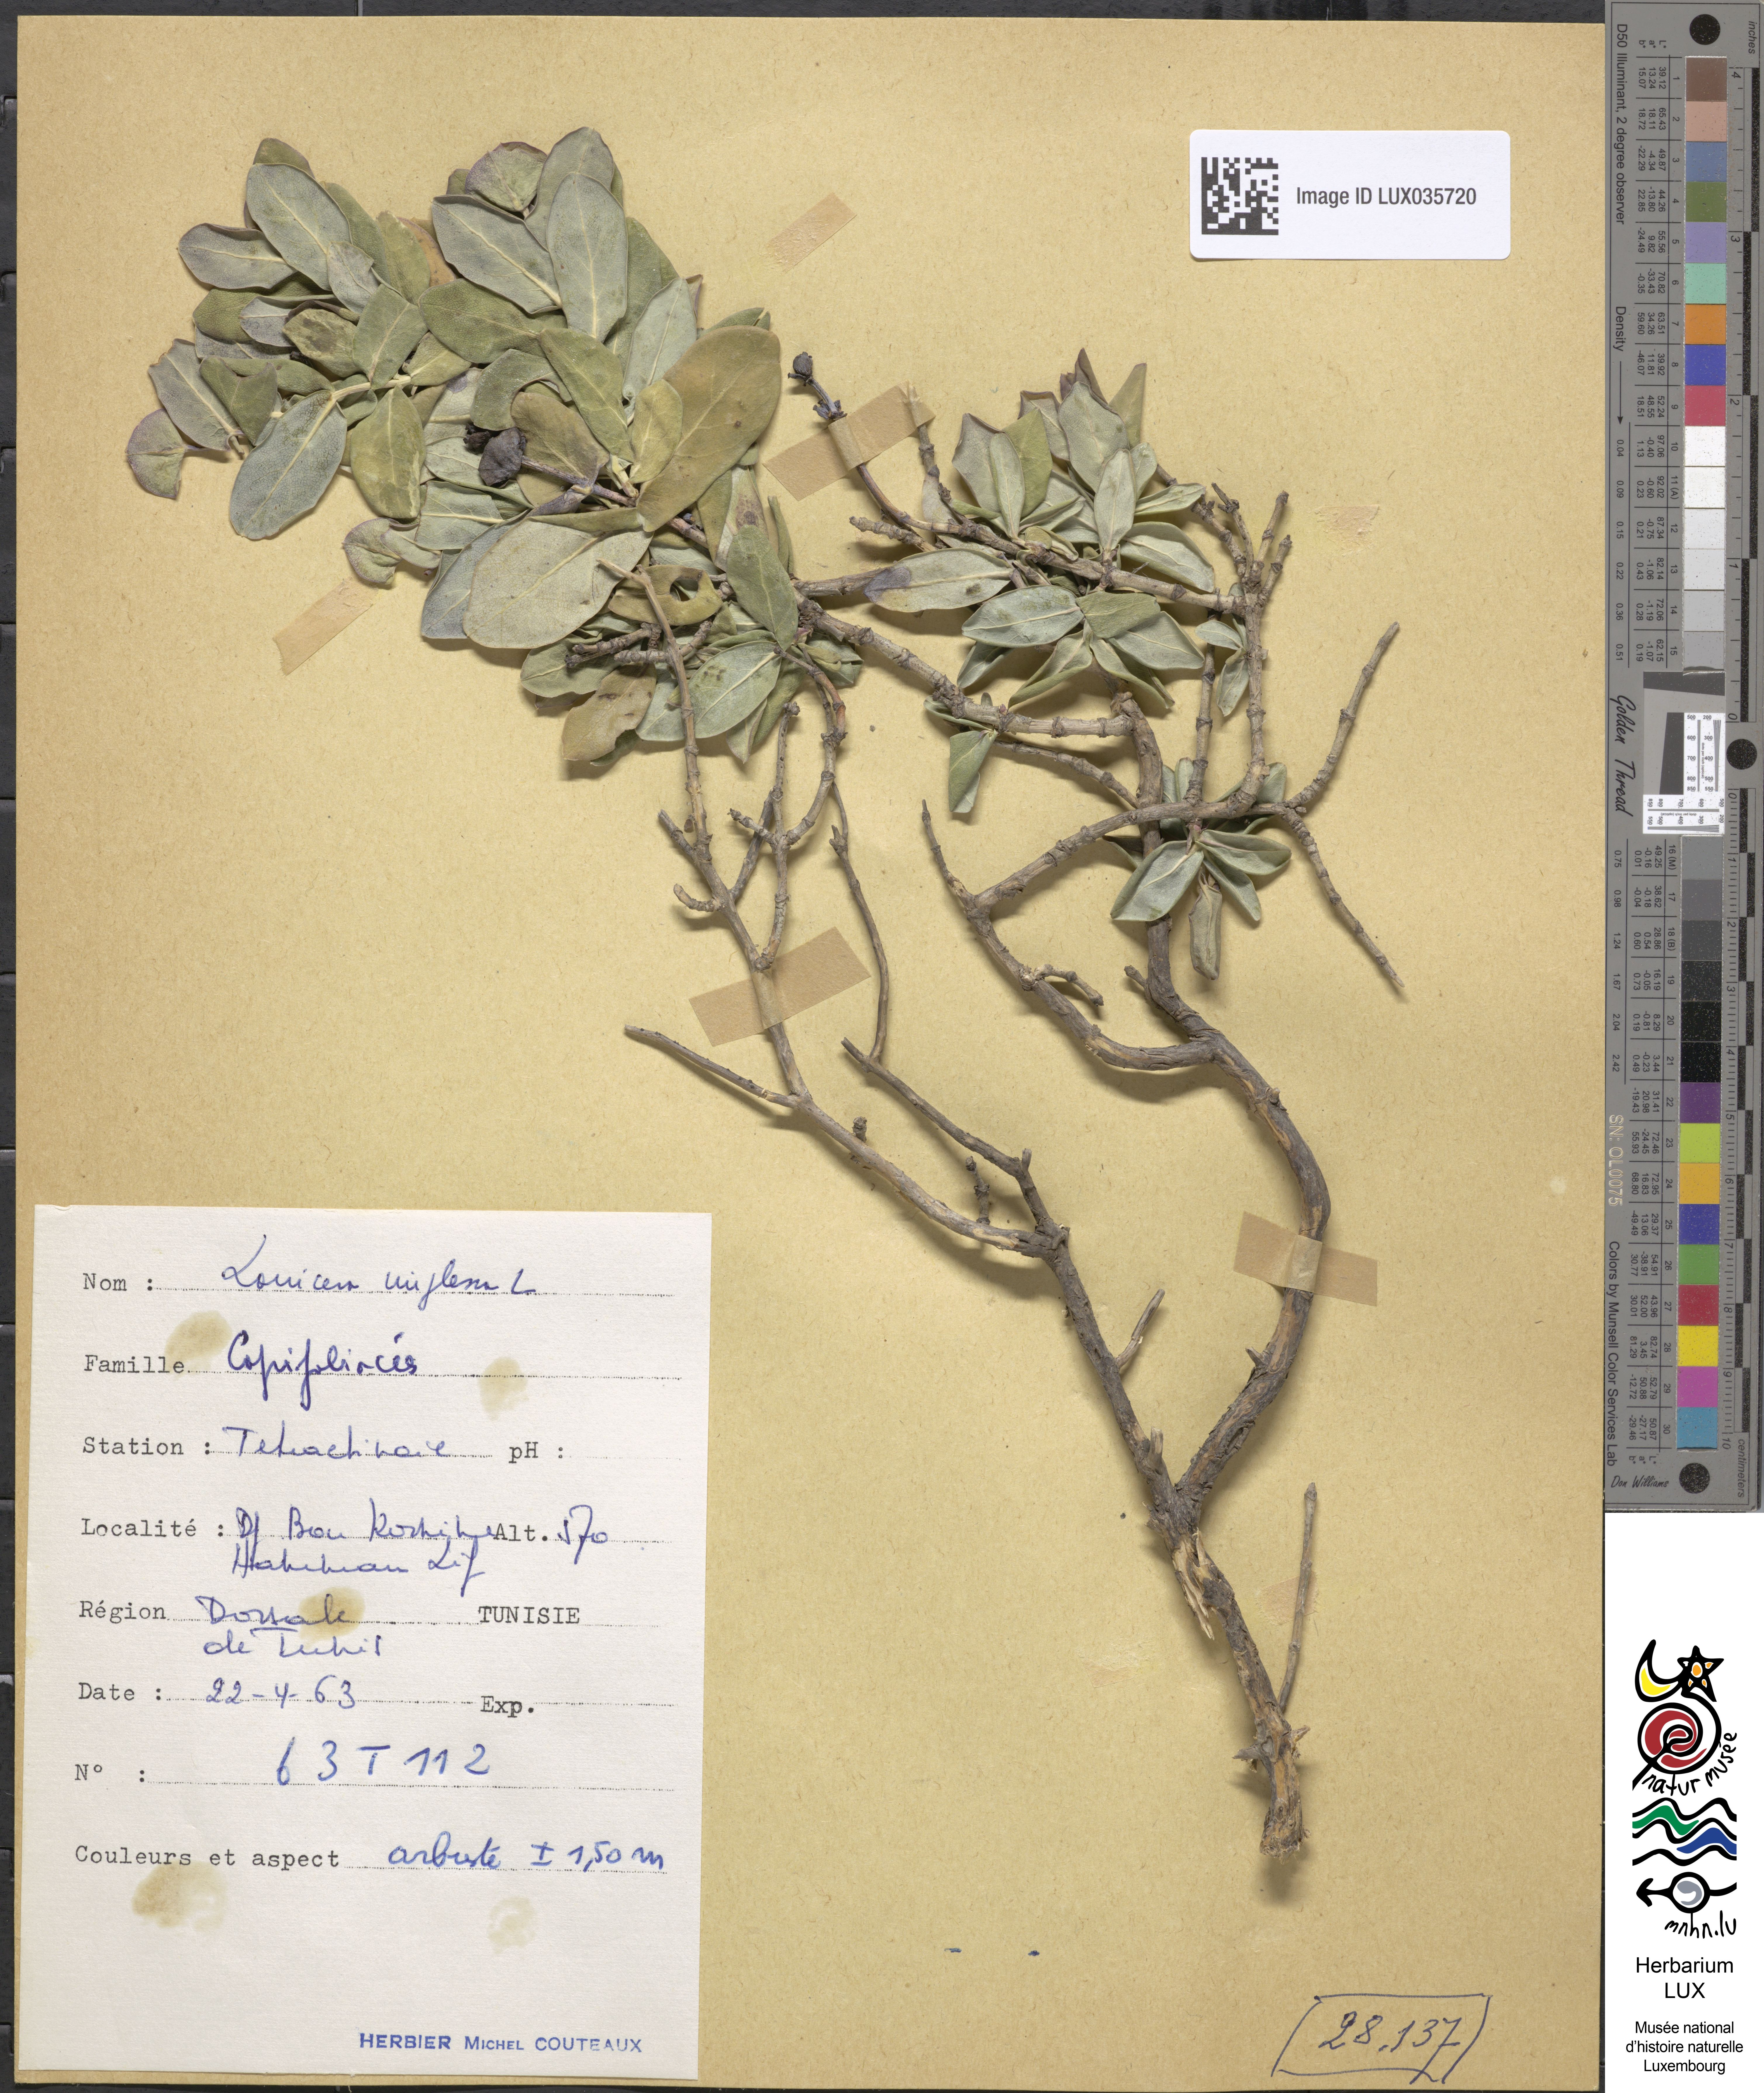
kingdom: Plantae
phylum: Tracheophyta
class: Magnoliopsida
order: Dipsacales
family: Caprifoliaceae
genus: Lonicera
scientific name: Lonicera implexa
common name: Minorca honeysuckle
